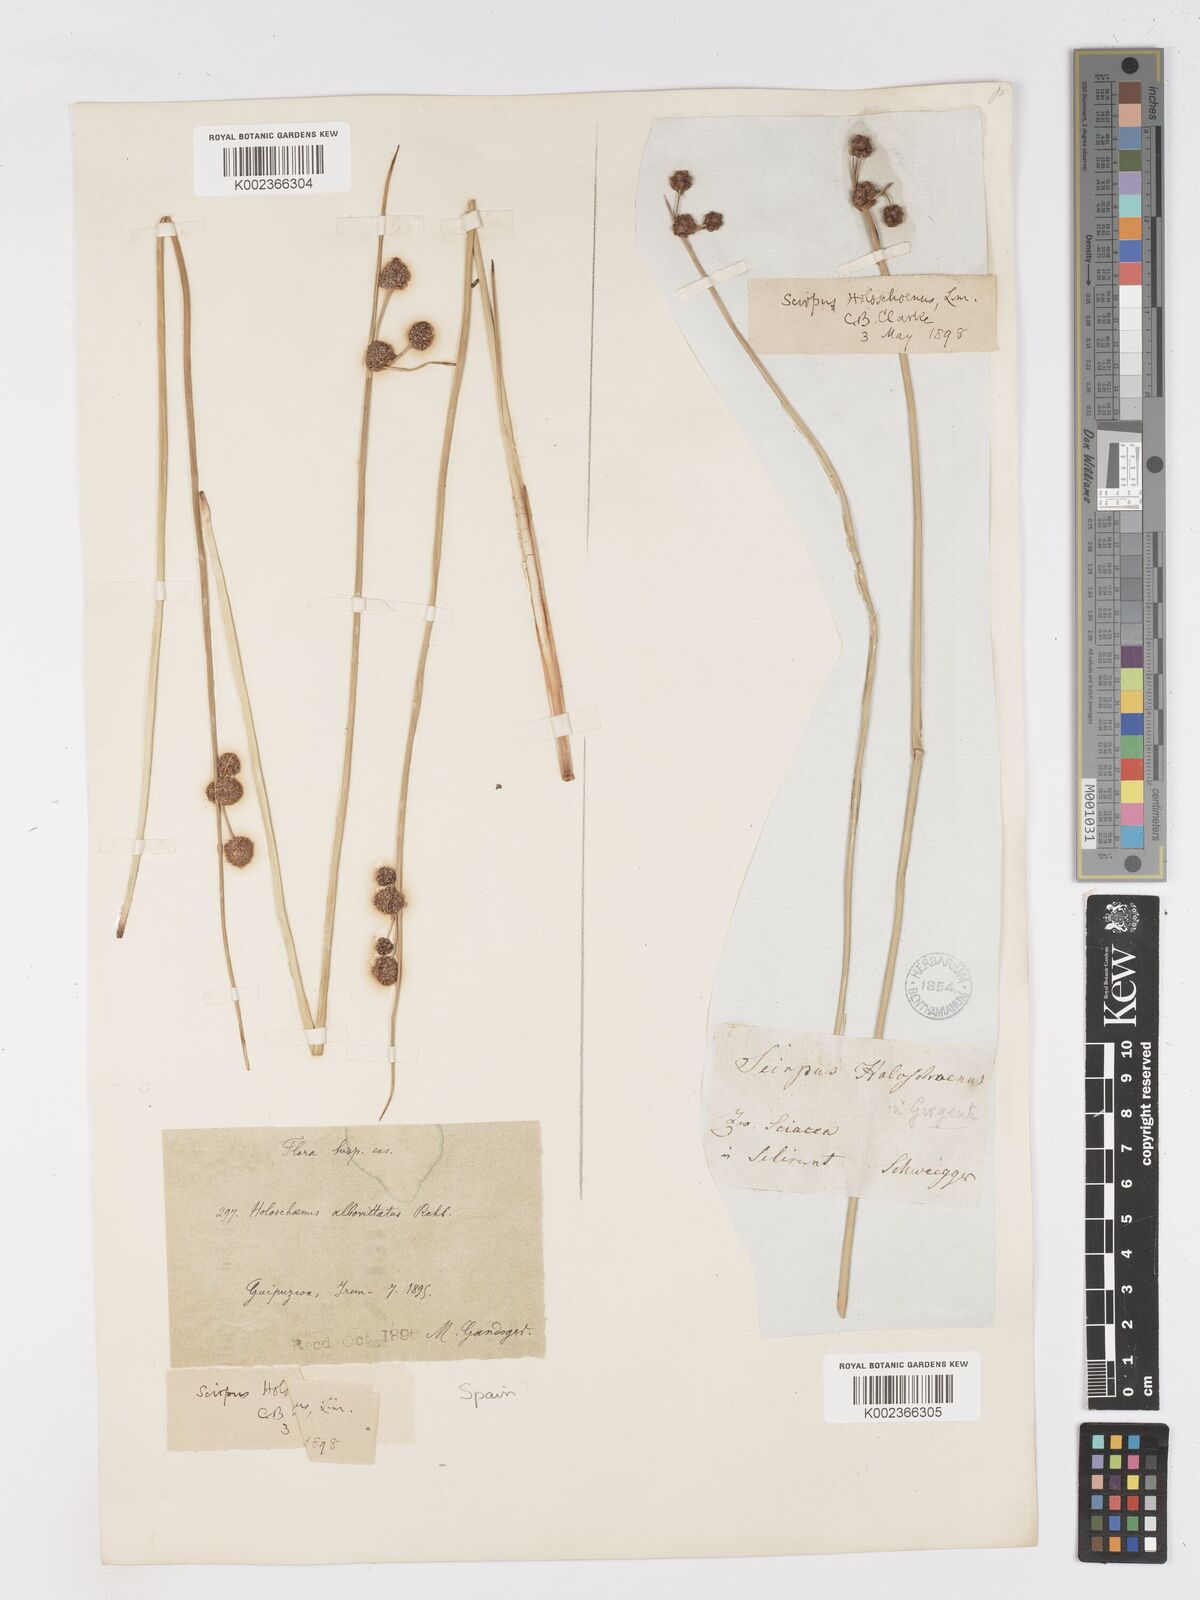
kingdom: Plantae
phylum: Tracheophyta
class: Liliopsida
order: Poales
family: Cyperaceae
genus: Scirpoides
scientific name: Scirpoides holoschoenus
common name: Round-headed club-rush
